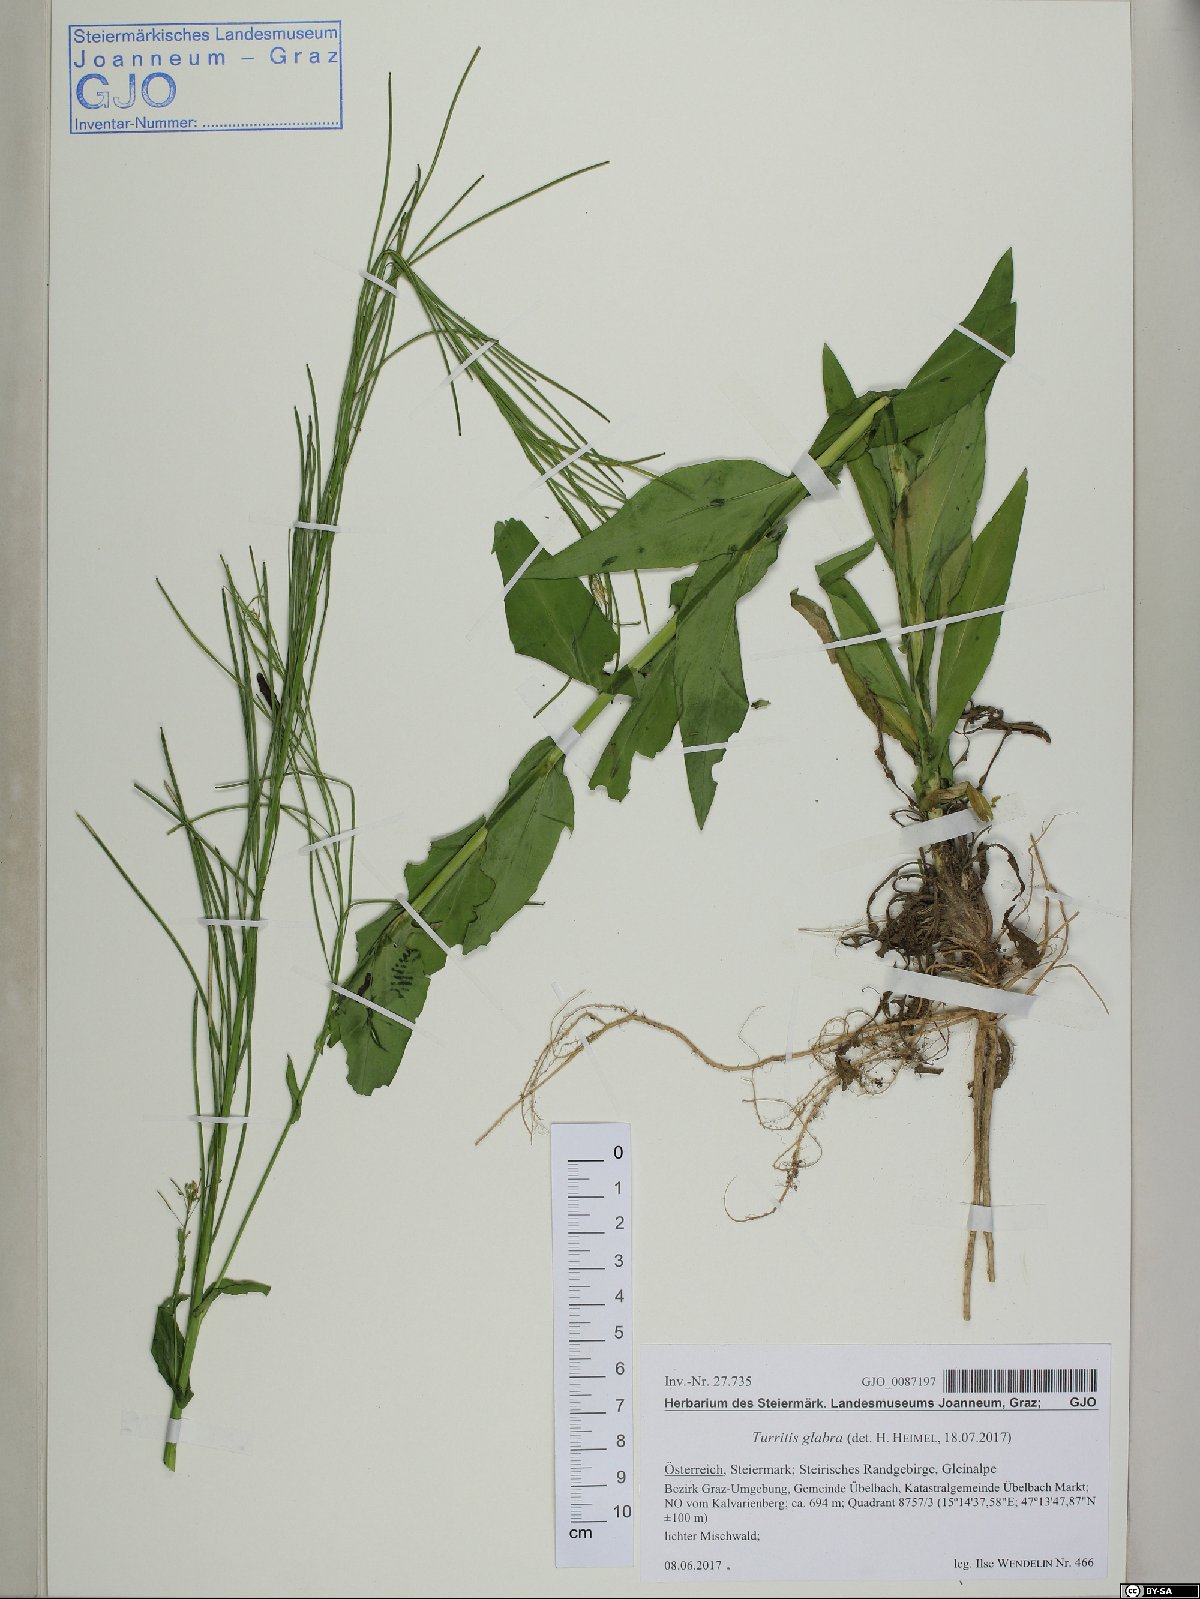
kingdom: Plantae
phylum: Tracheophyta
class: Magnoliopsida
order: Brassicales
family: Brassicaceae
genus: Turritis
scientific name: Turritis glabra
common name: Tower rockcress
